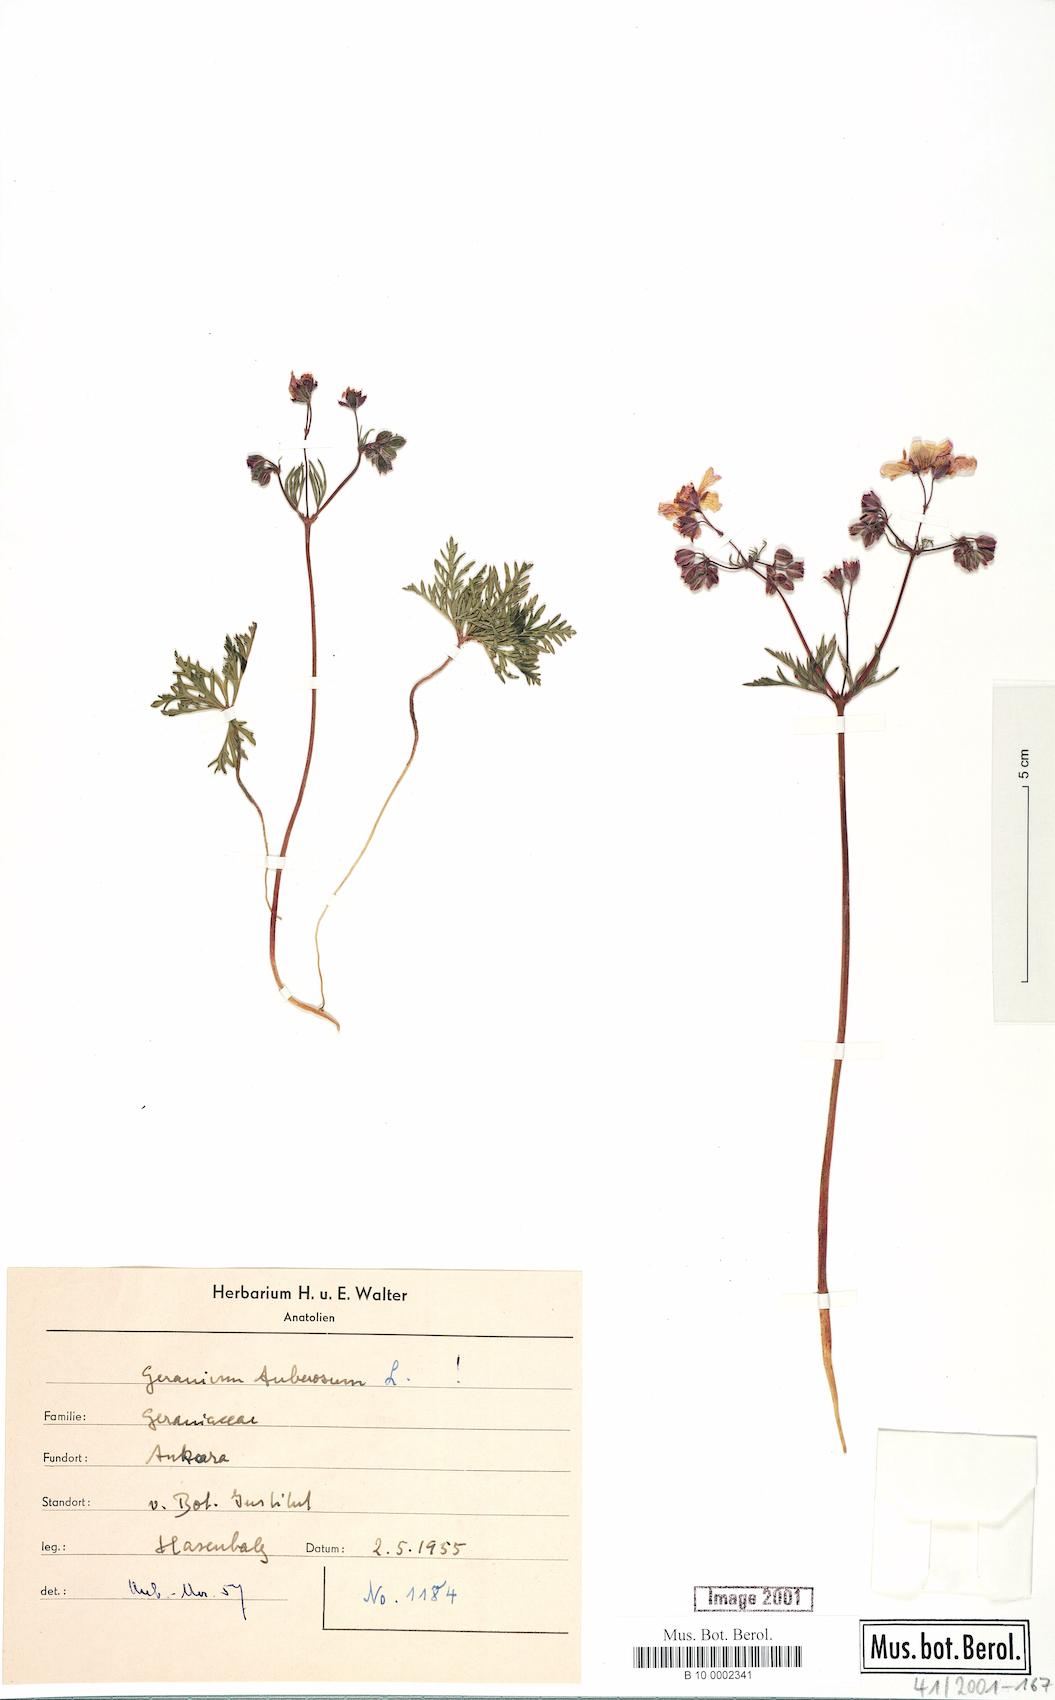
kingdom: Plantae
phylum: Tracheophyta
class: Magnoliopsida
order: Geraniales
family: Geraniaceae
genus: Geranium
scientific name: Geranium tuberosum
